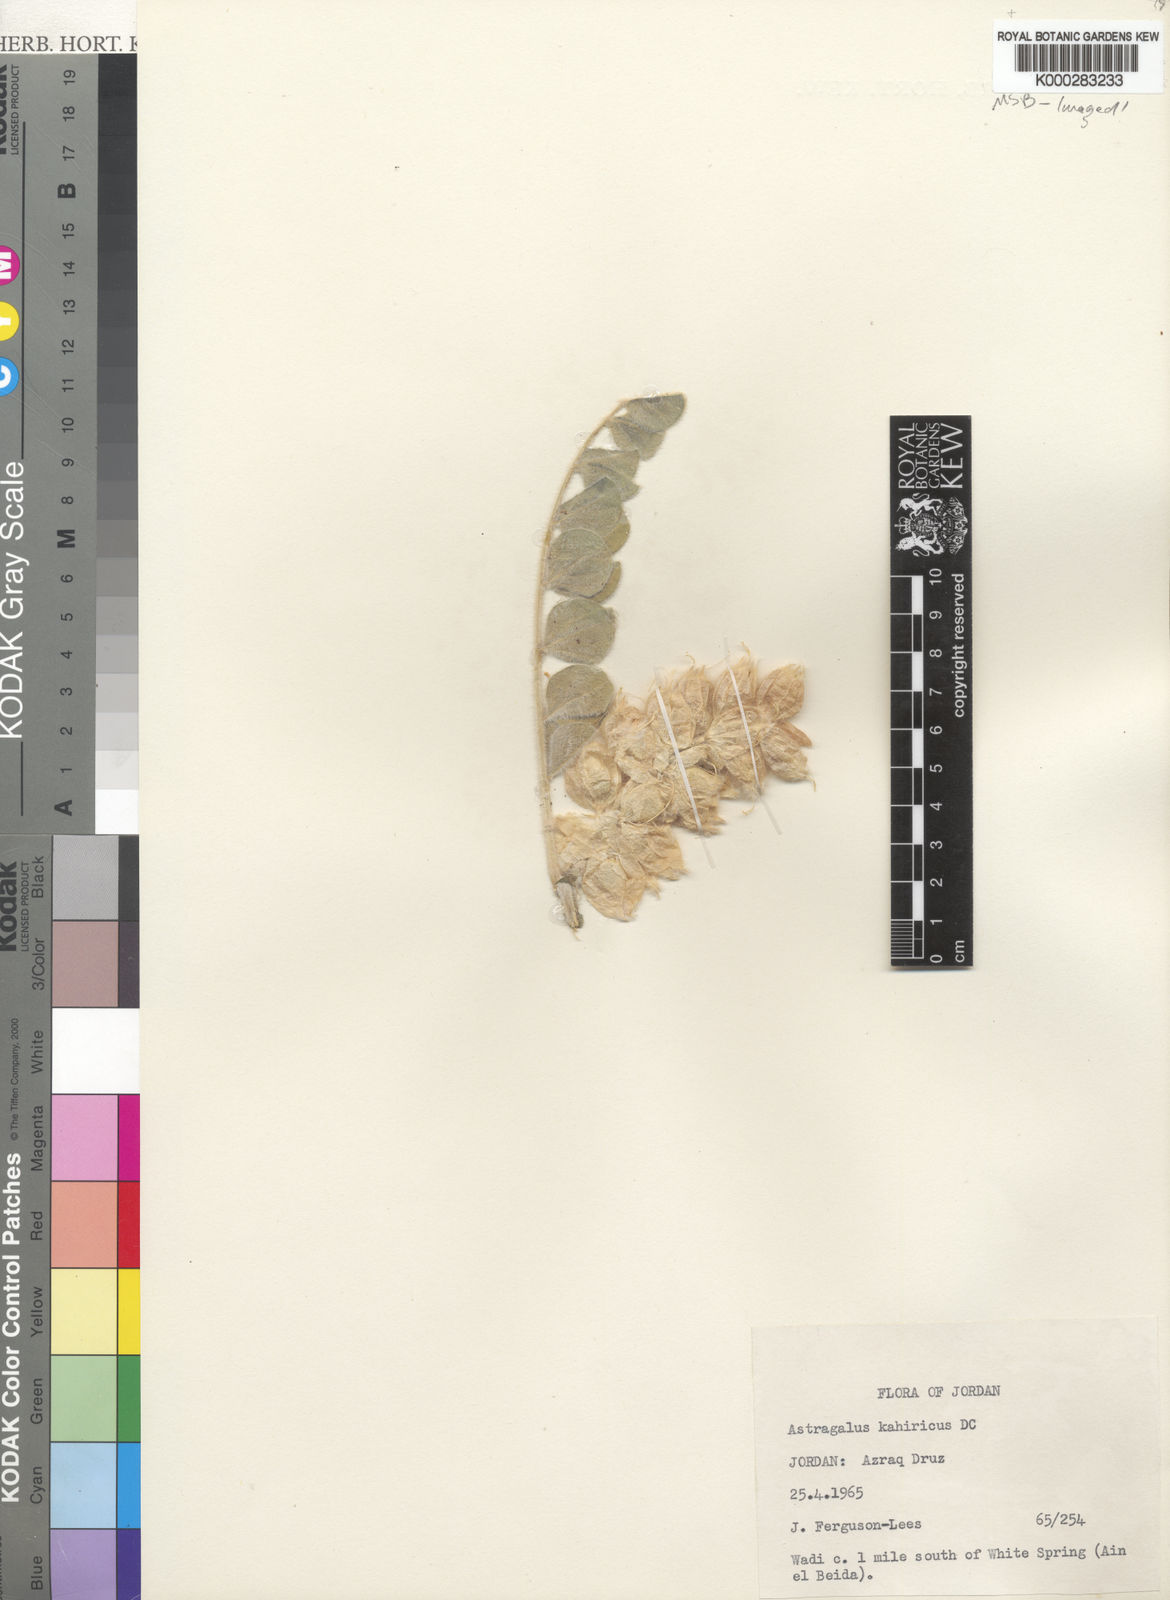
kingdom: Plantae
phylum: Tracheophyta
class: Magnoliopsida
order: Fabales
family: Fabaceae
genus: Astragalus
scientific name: Astragalus kahiricus
